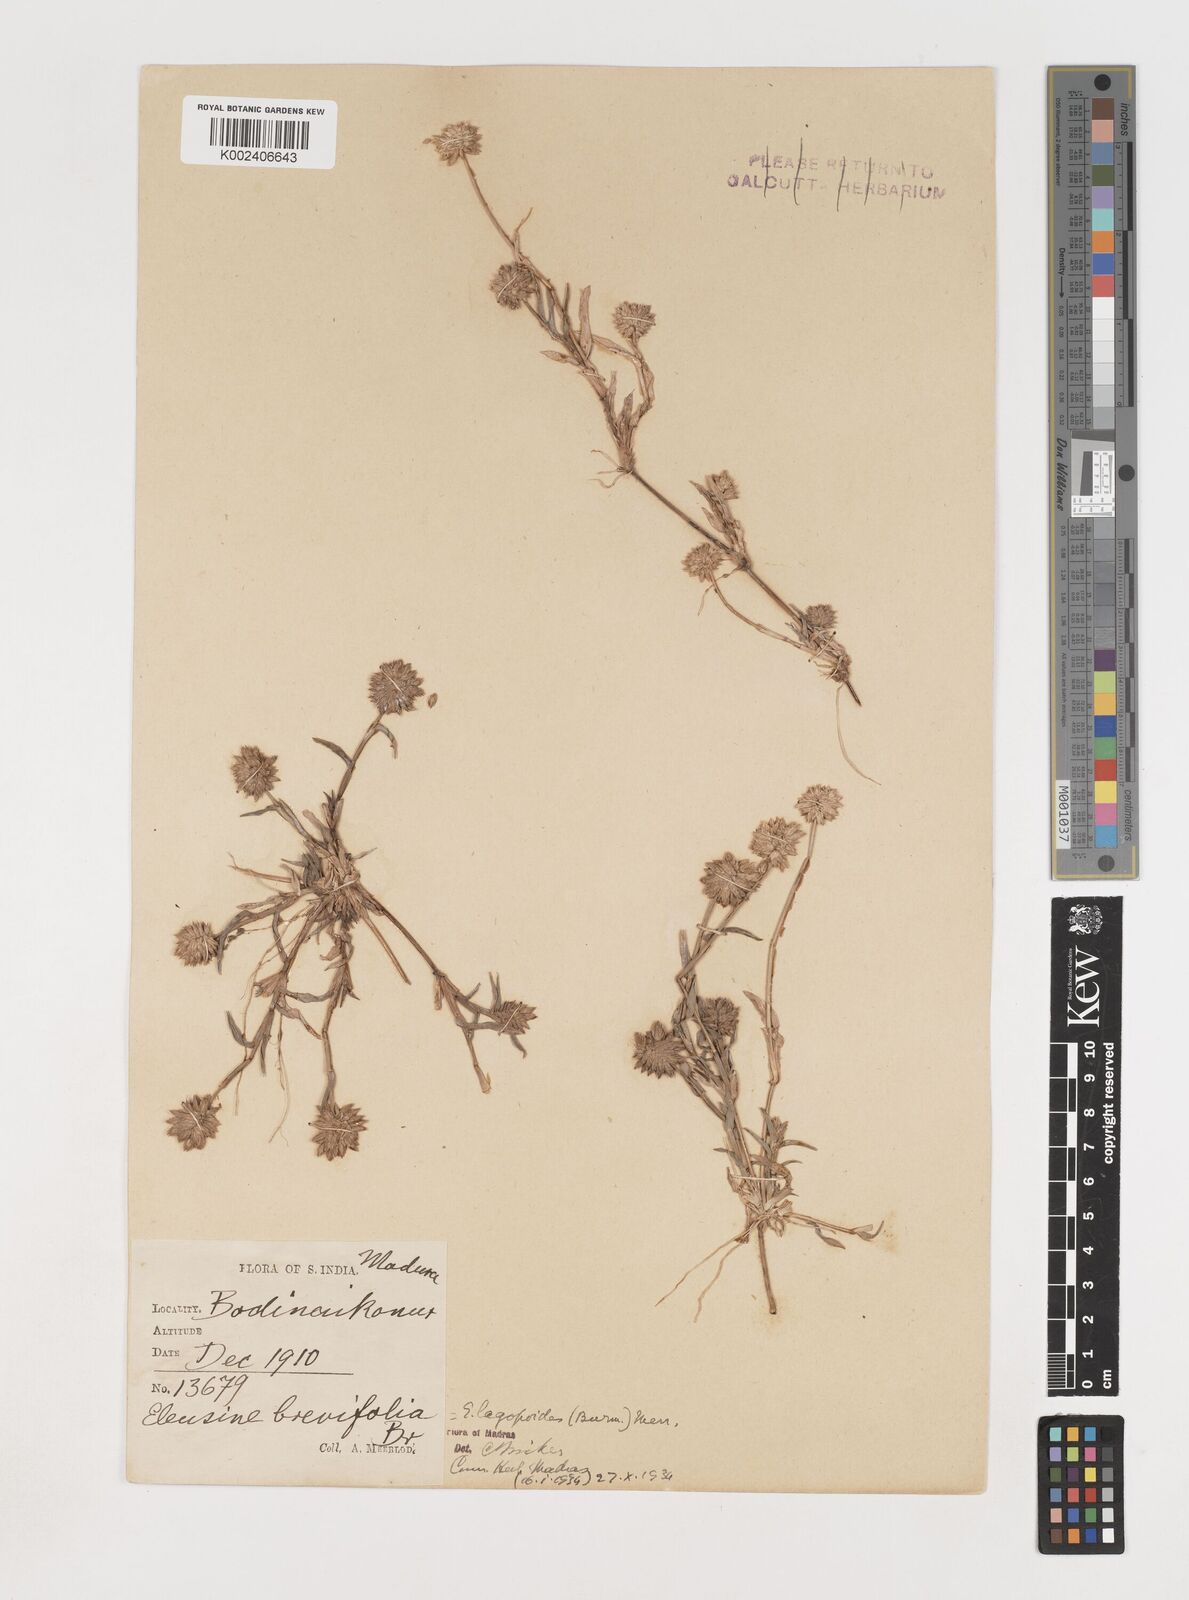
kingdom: Plantae
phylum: Tracheophyta
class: Liliopsida
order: Poales
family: Poaceae
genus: Coelachyrum
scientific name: Coelachyrum lagopoides
